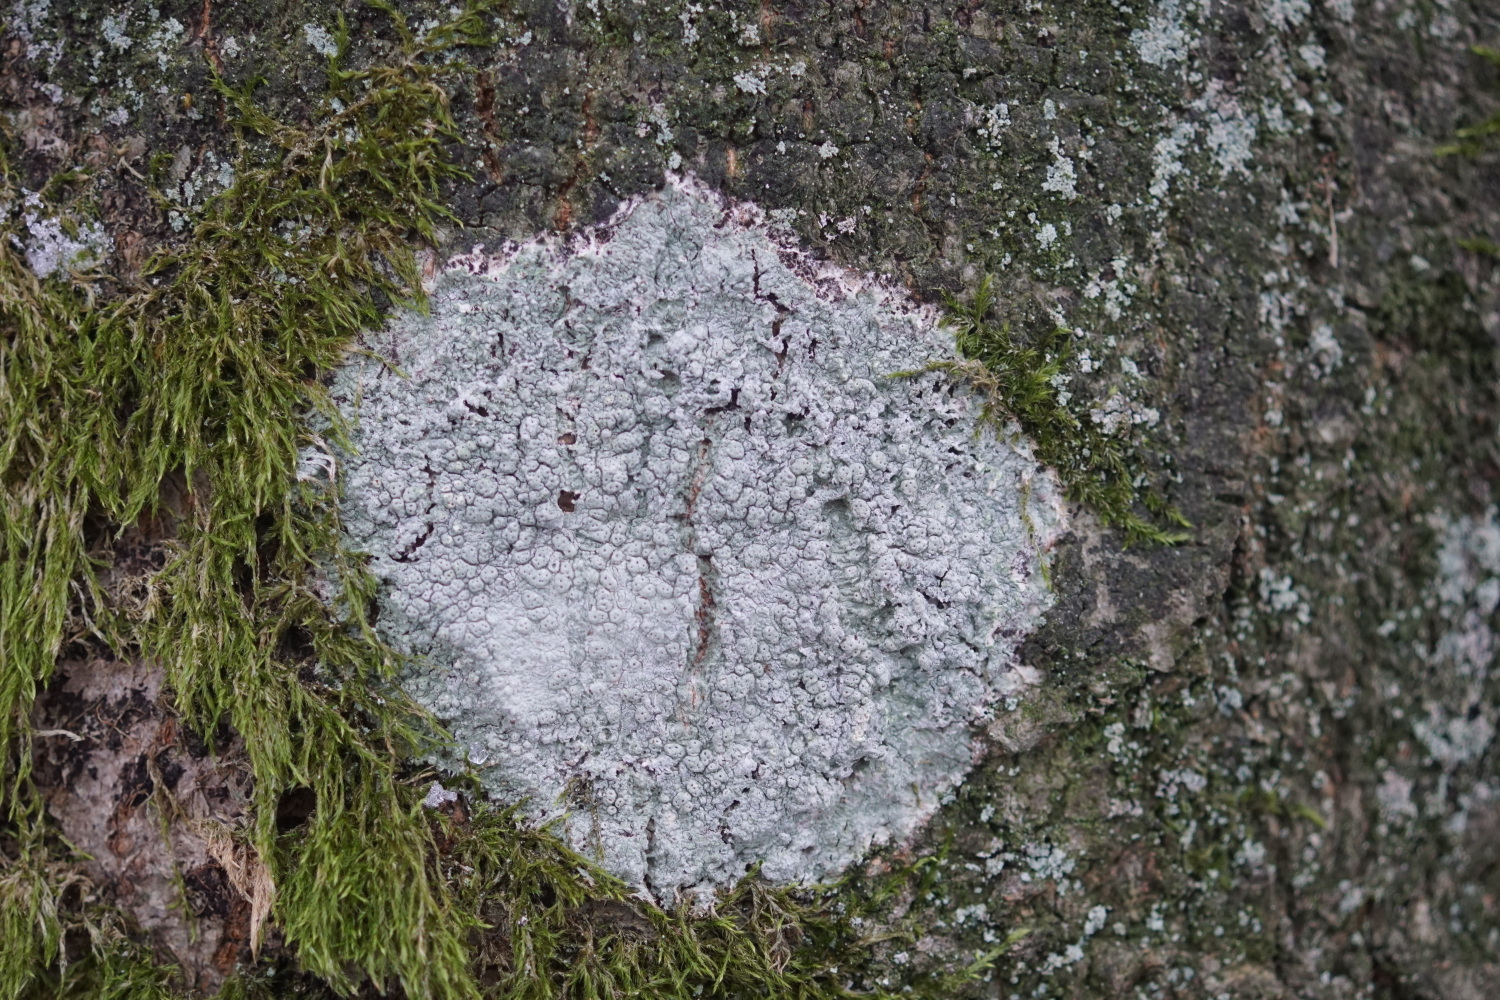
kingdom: Fungi
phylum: Ascomycota
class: Lecanoromycetes
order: Pertusariales
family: Pertusariaceae
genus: Pertusaria
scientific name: Pertusaria pertusa
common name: almindelig prikvortelav
